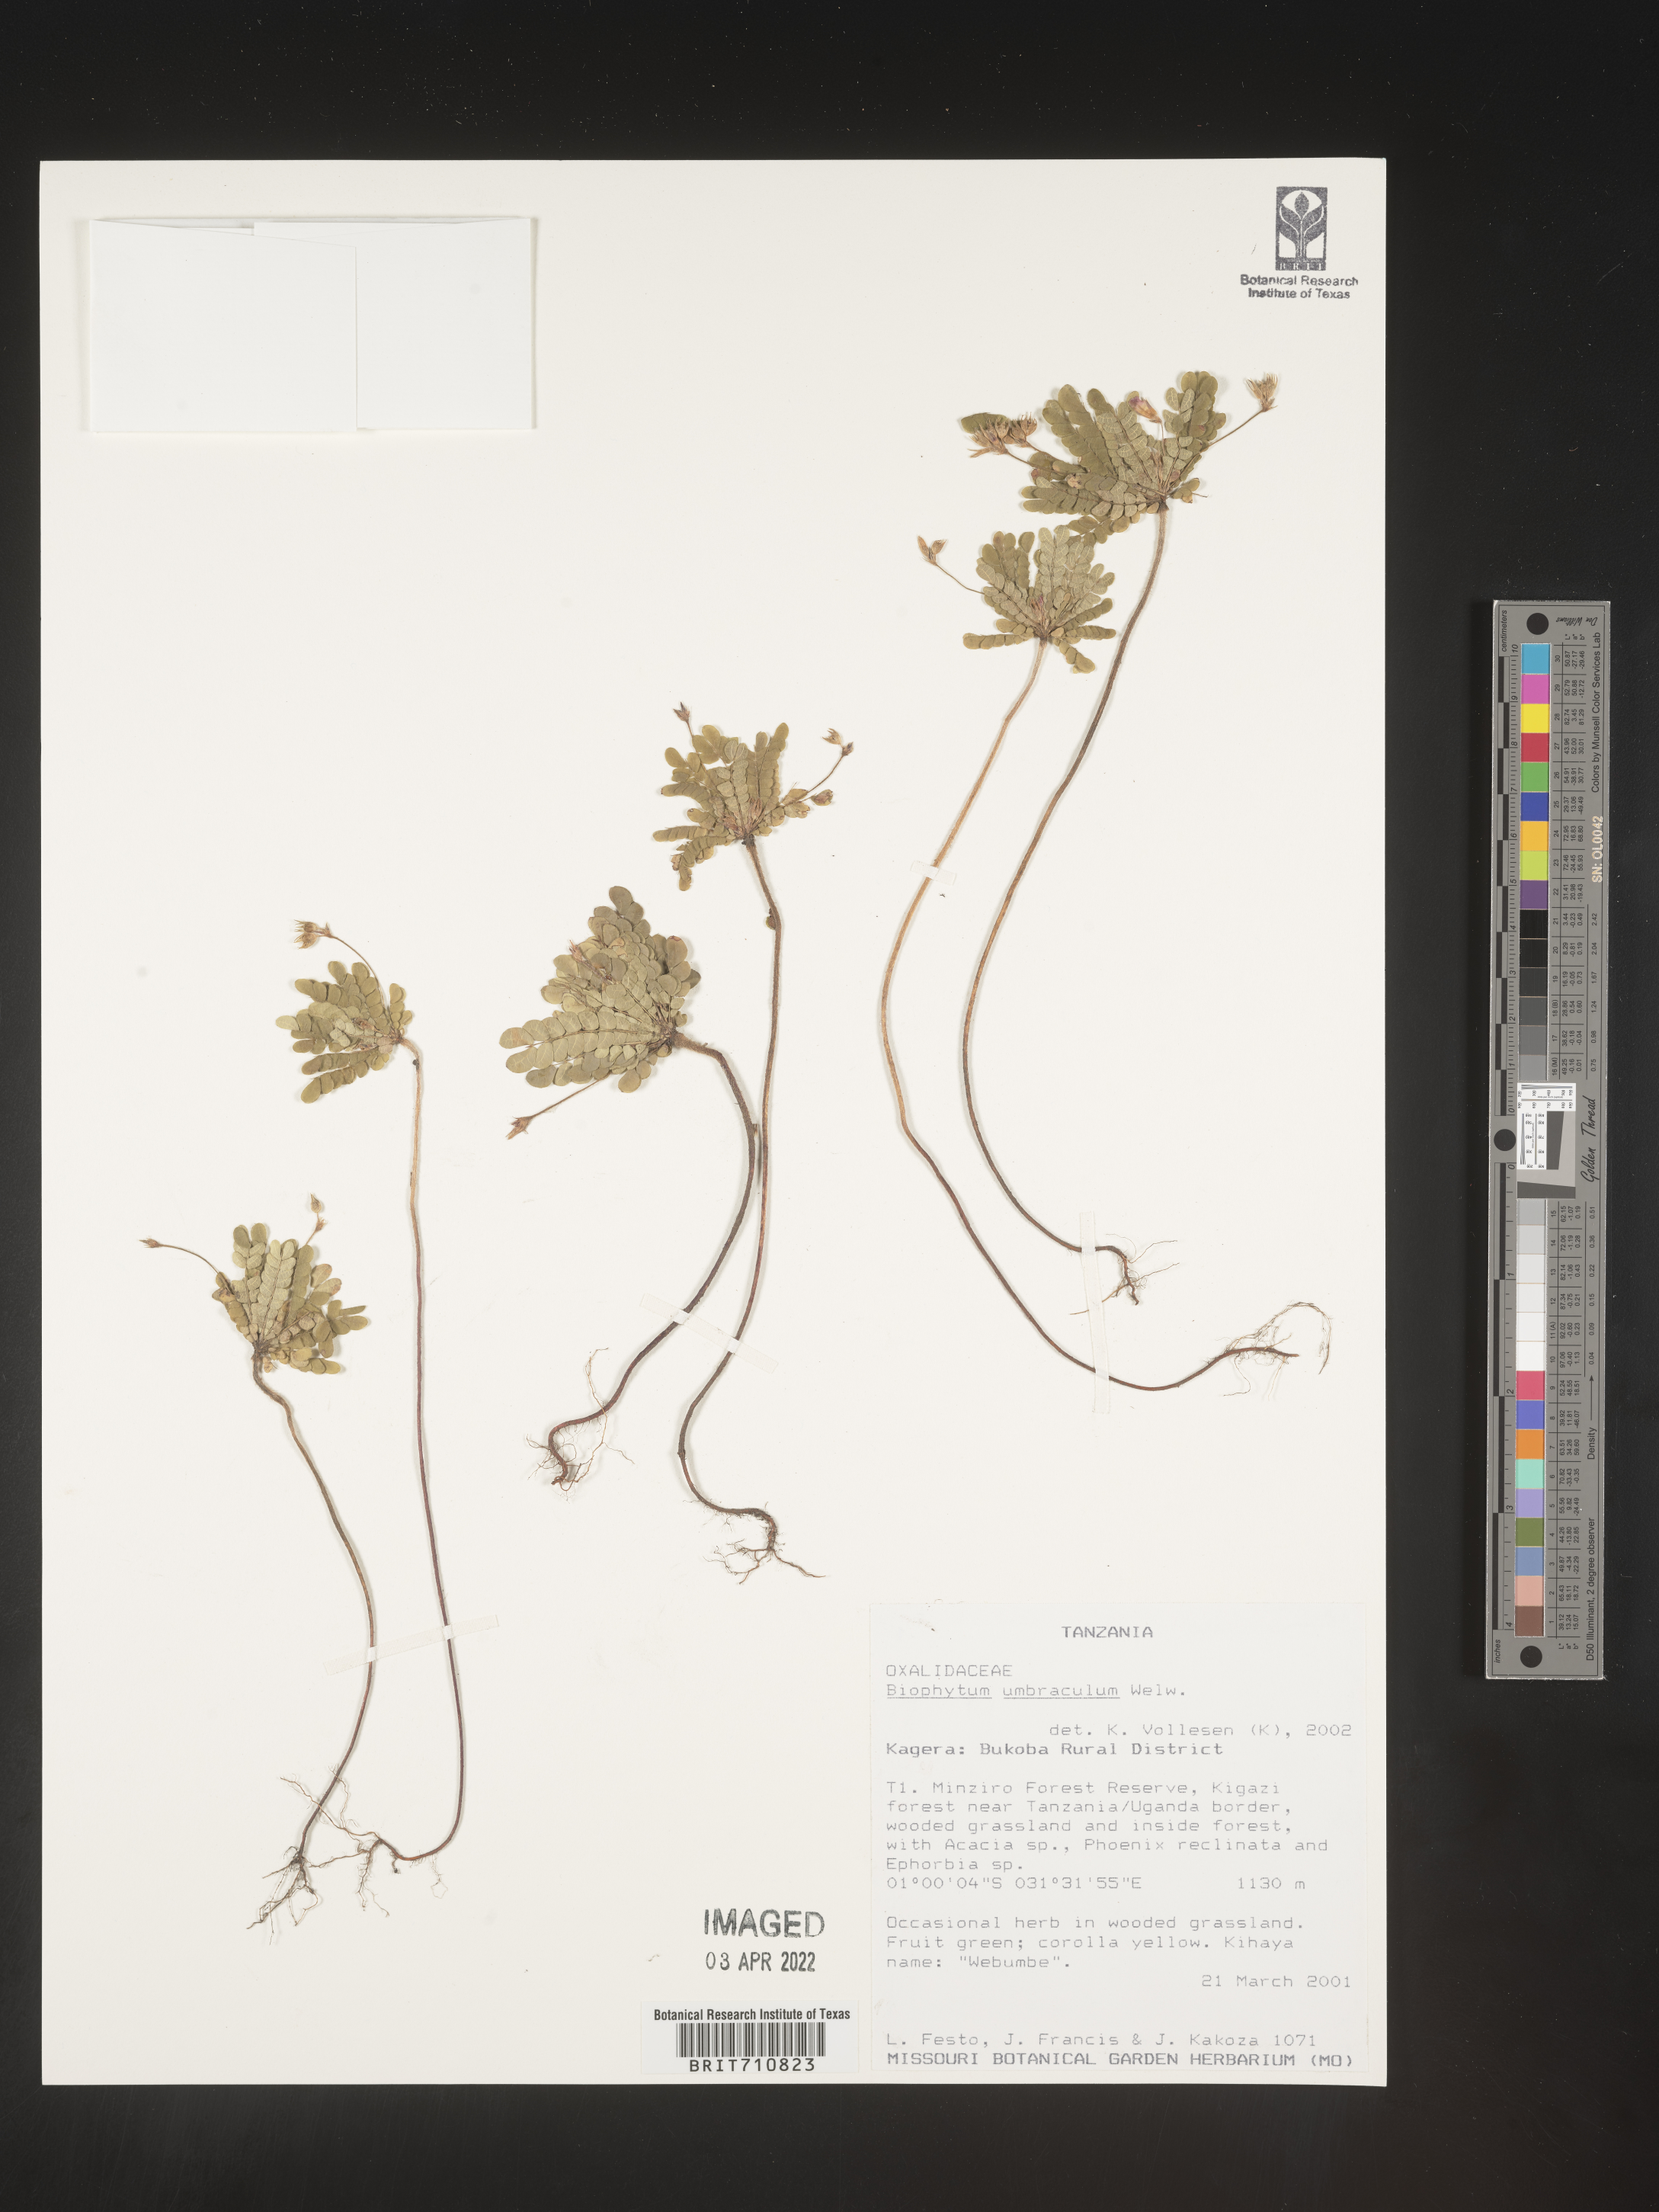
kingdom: Plantae
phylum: Tracheophyta
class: Magnoliopsida
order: Oxalidales
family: Oxalidaceae
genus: Biophytum
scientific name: Biophytum
